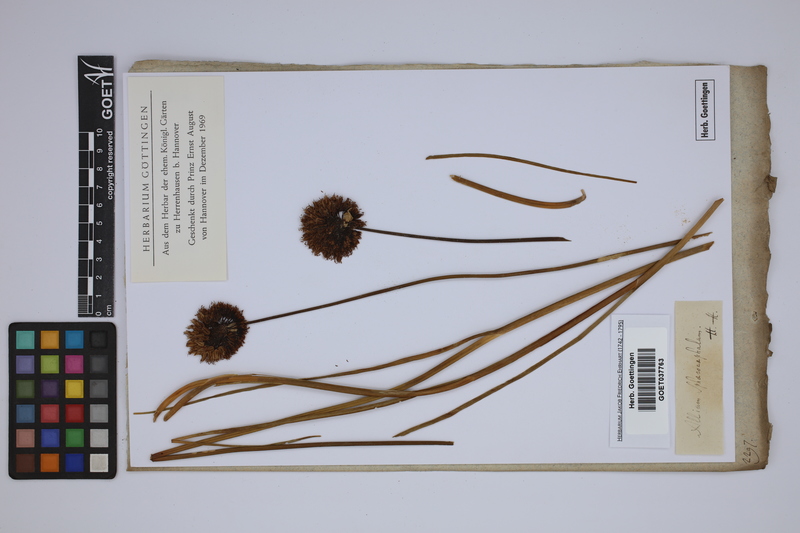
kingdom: Plantae
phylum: Tracheophyta
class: Liliopsida
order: Asparagales
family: Amaryllidaceae
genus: Allium
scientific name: Allium sphaerocephalon
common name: Round-headed leek
